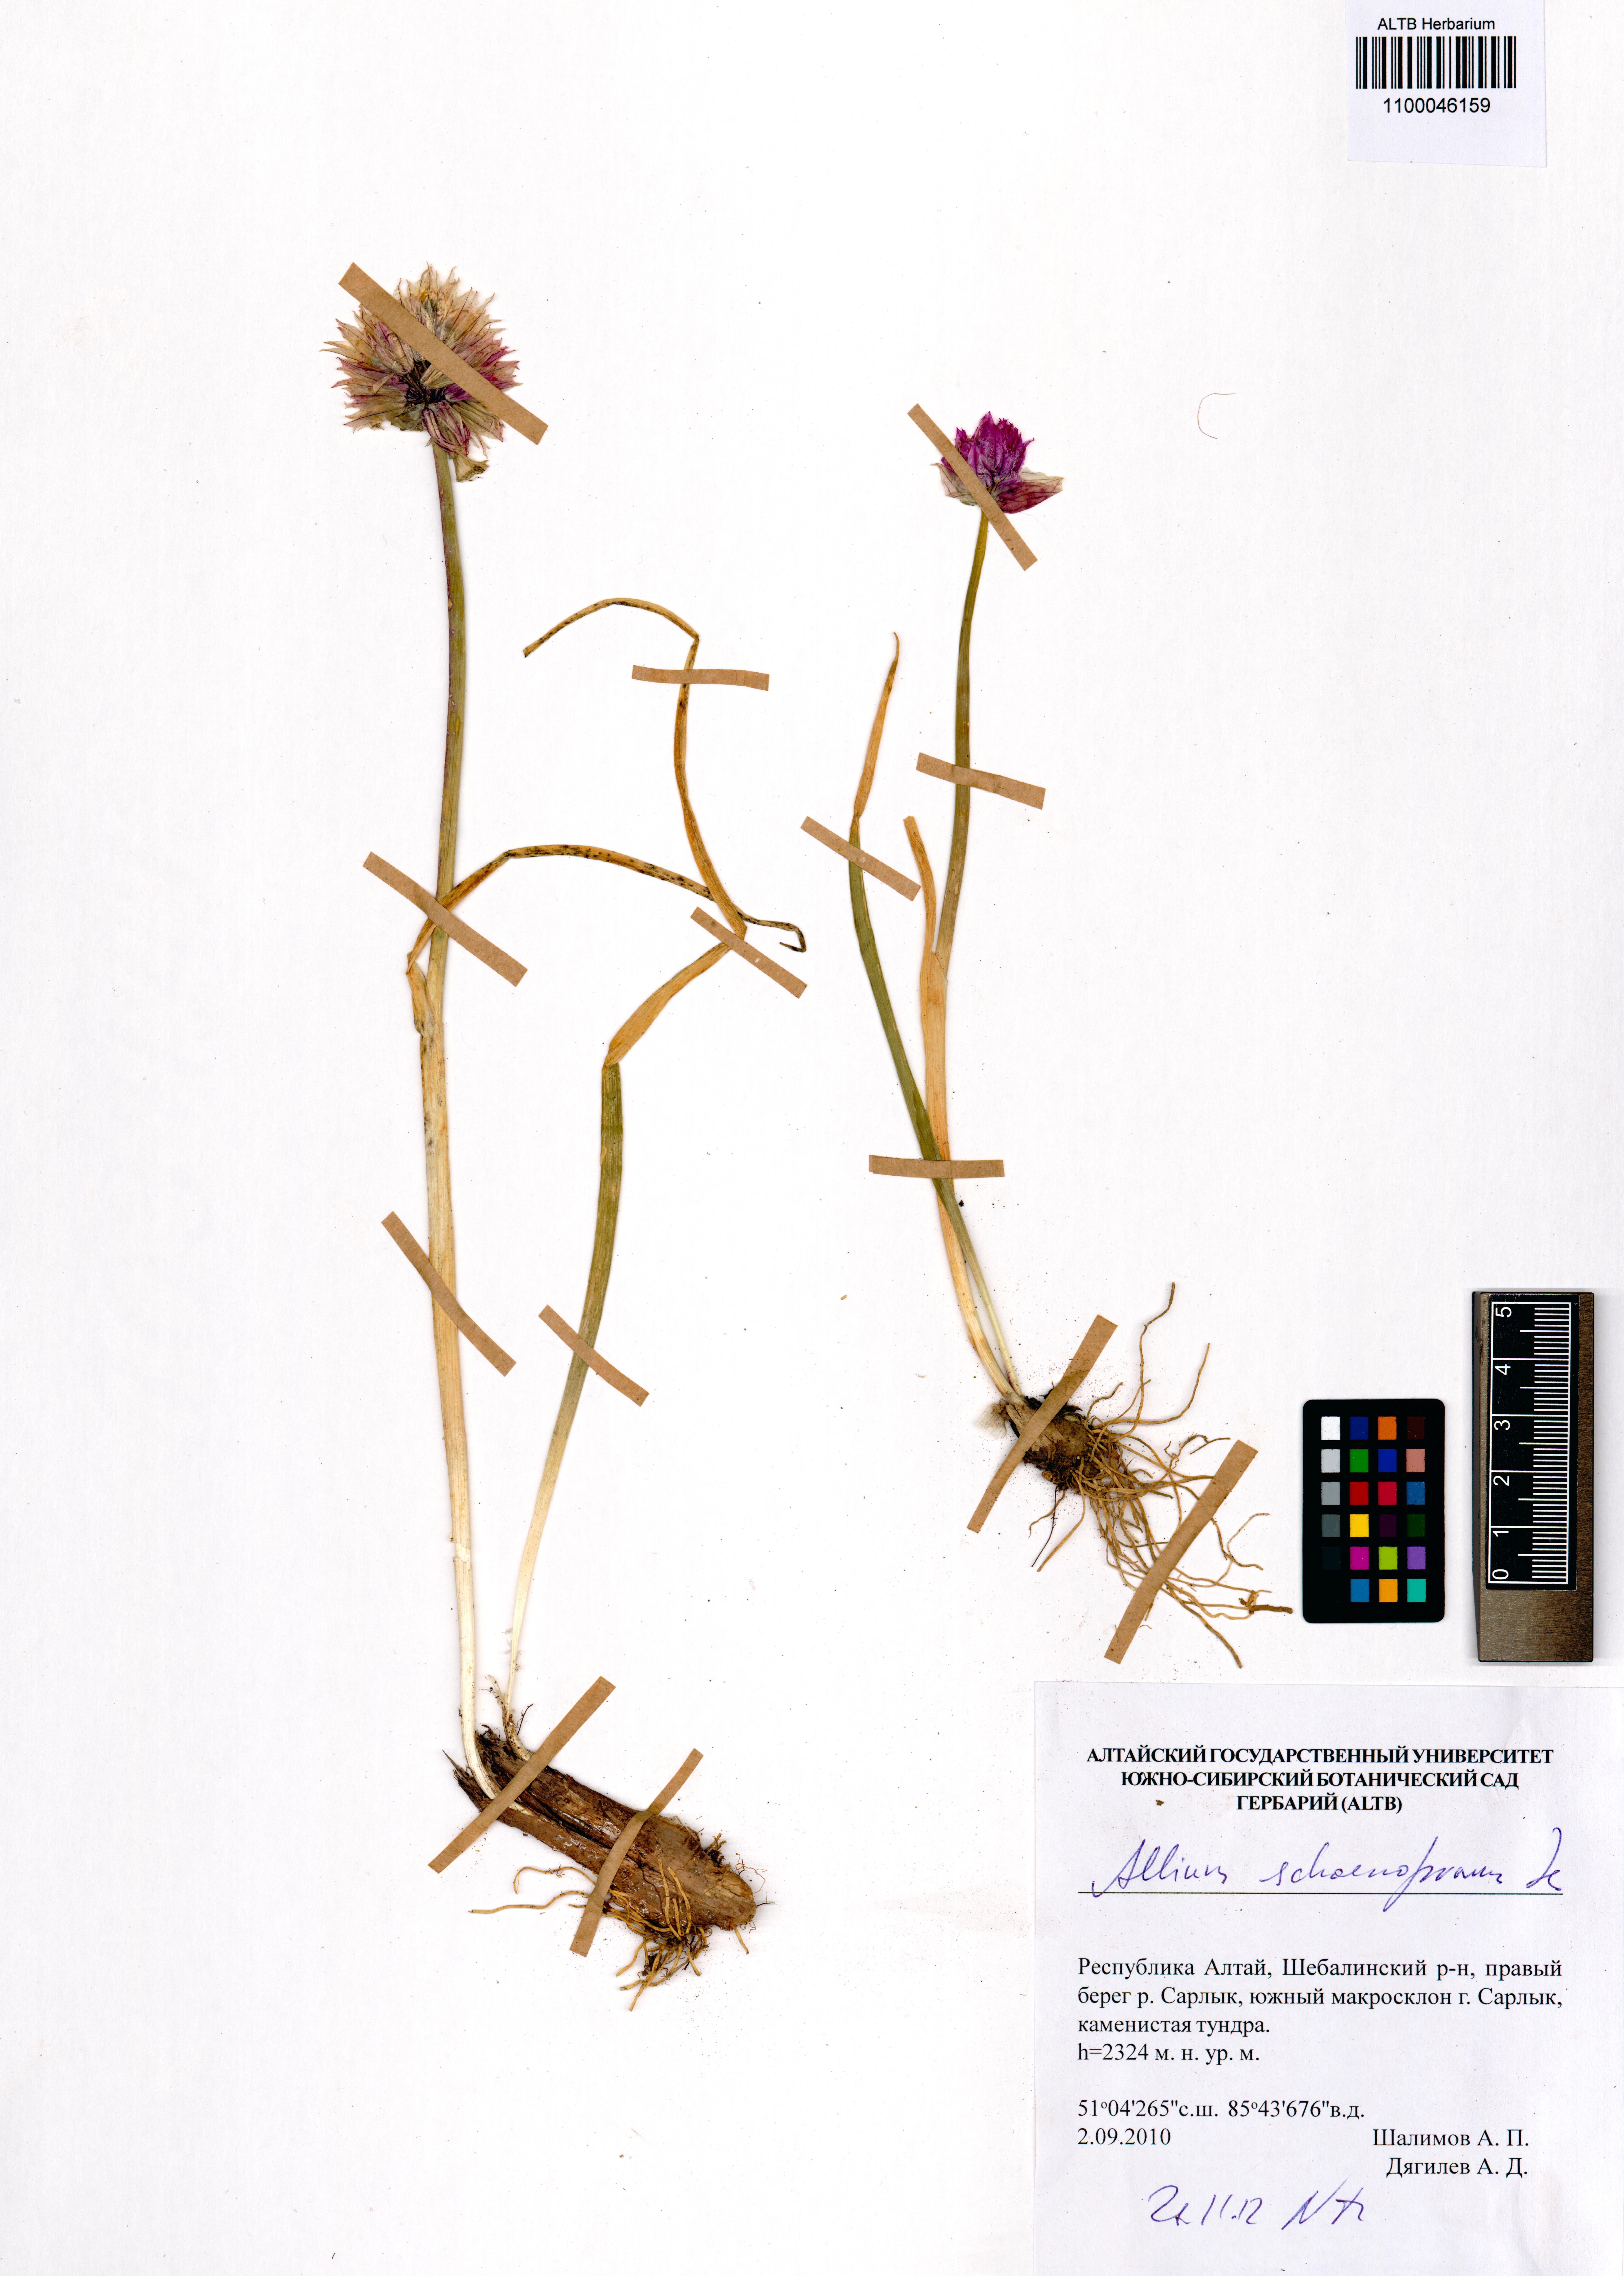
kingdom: Plantae
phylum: Tracheophyta
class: Liliopsida
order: Asparagales
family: Amaryllidaceae
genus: Allium
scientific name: Allium schoenoprasum
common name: Chives
